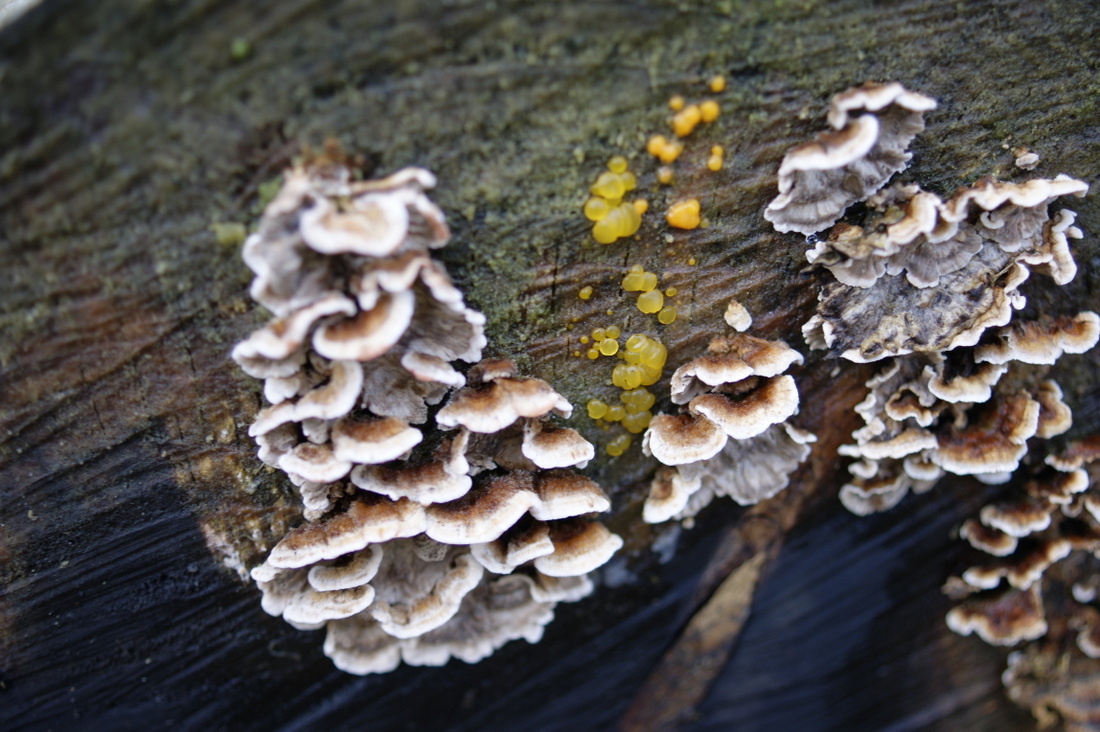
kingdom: Fungi
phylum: Basidiomycota
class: Dacrymycetes
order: Dacrymycetales
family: Dacrymycetaceae
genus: Dacrymyces
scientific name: Dacrymyces stillatus
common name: almindelig tåresvamp
